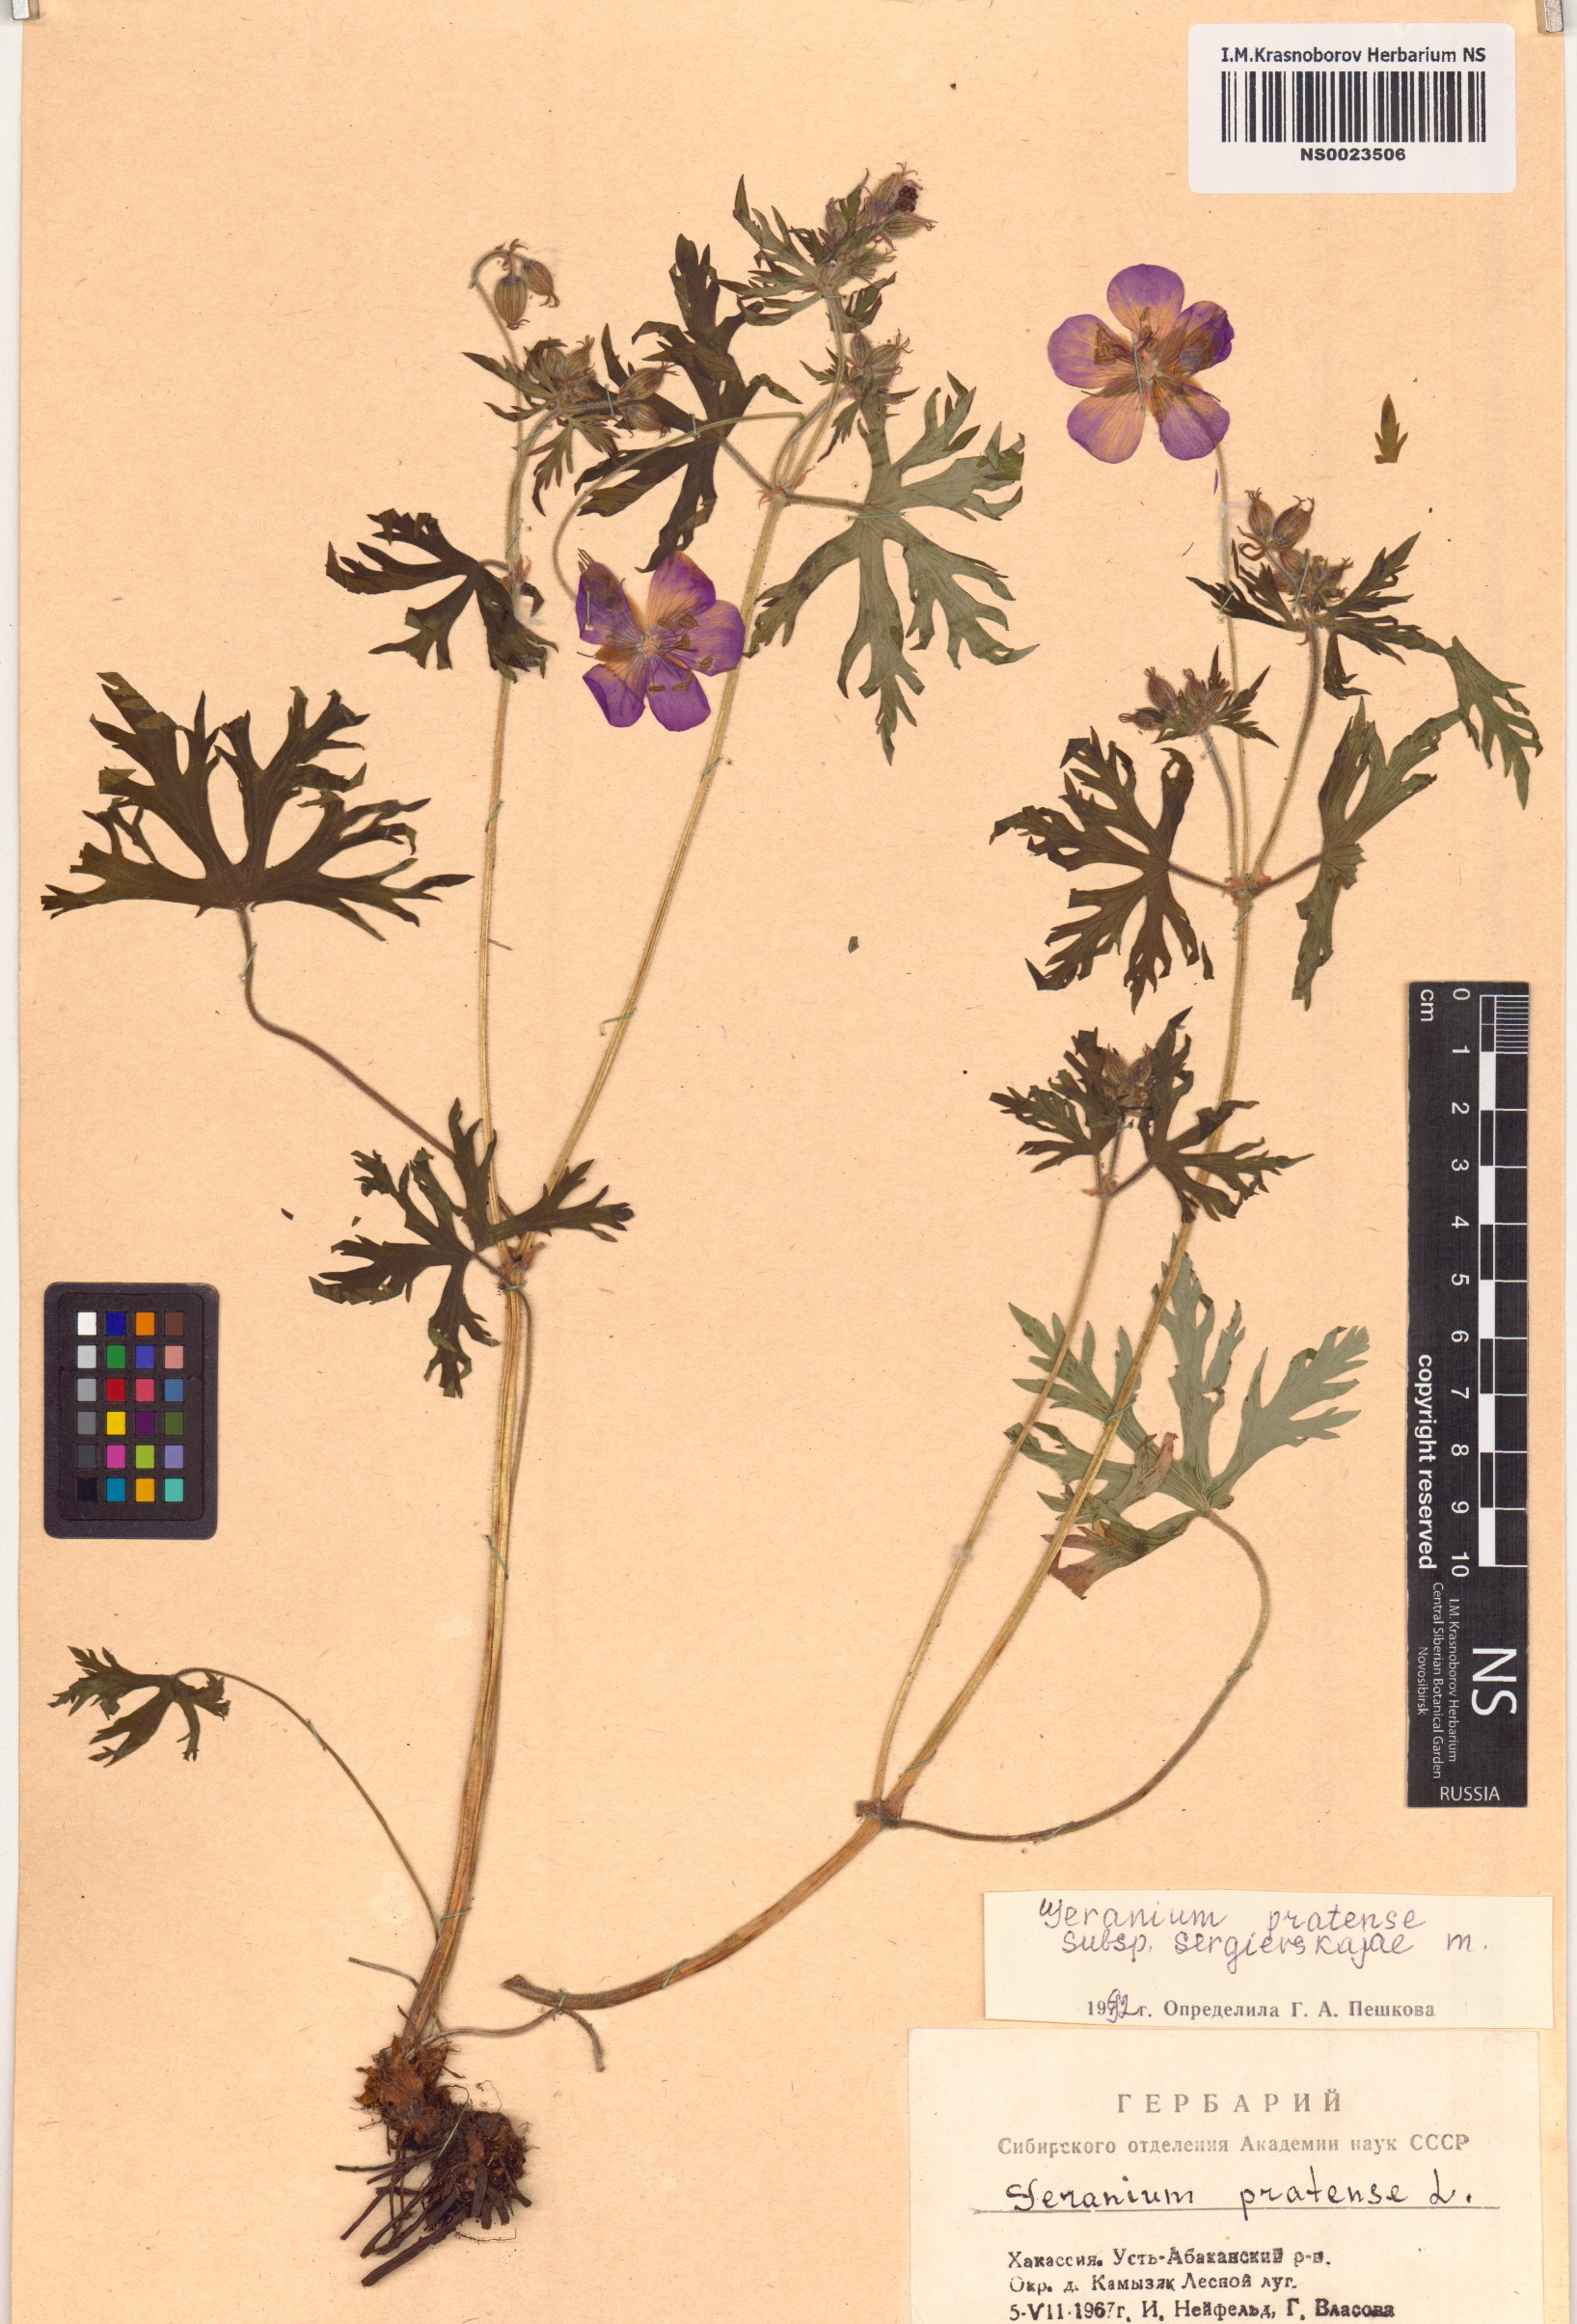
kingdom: Plantae
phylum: Tracheophyta
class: Magnoliopsida
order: Geraniales
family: Geraniaceae
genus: Geranium
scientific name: Geranium pratense
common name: Meadow crane's-bill
